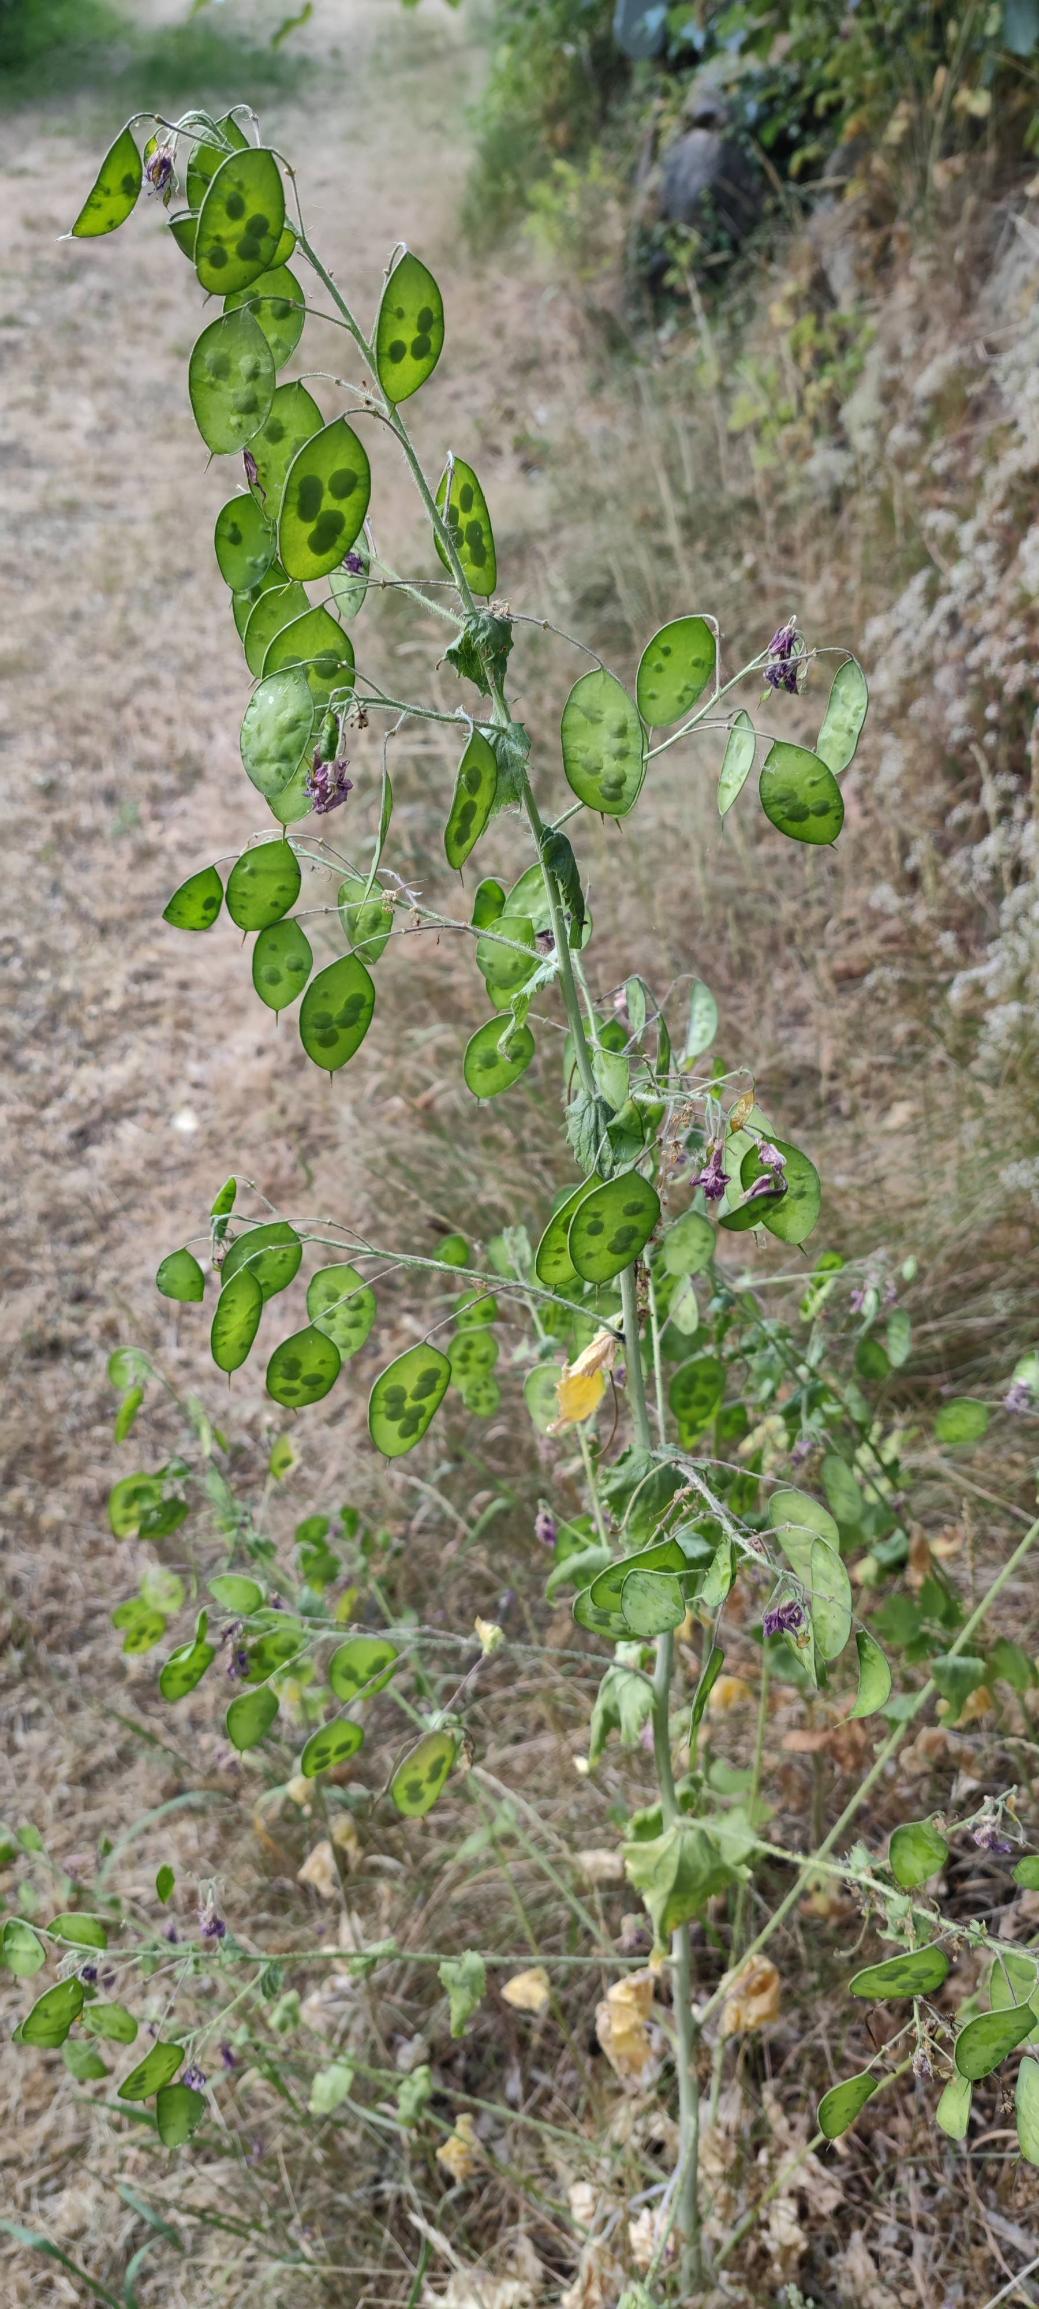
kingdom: Plantae
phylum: Tracheophyta
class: Magnoliopsida
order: Brassicales
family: Brassicaceae
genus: Lunaria
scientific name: Lunaria annua
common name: Judaspenge
